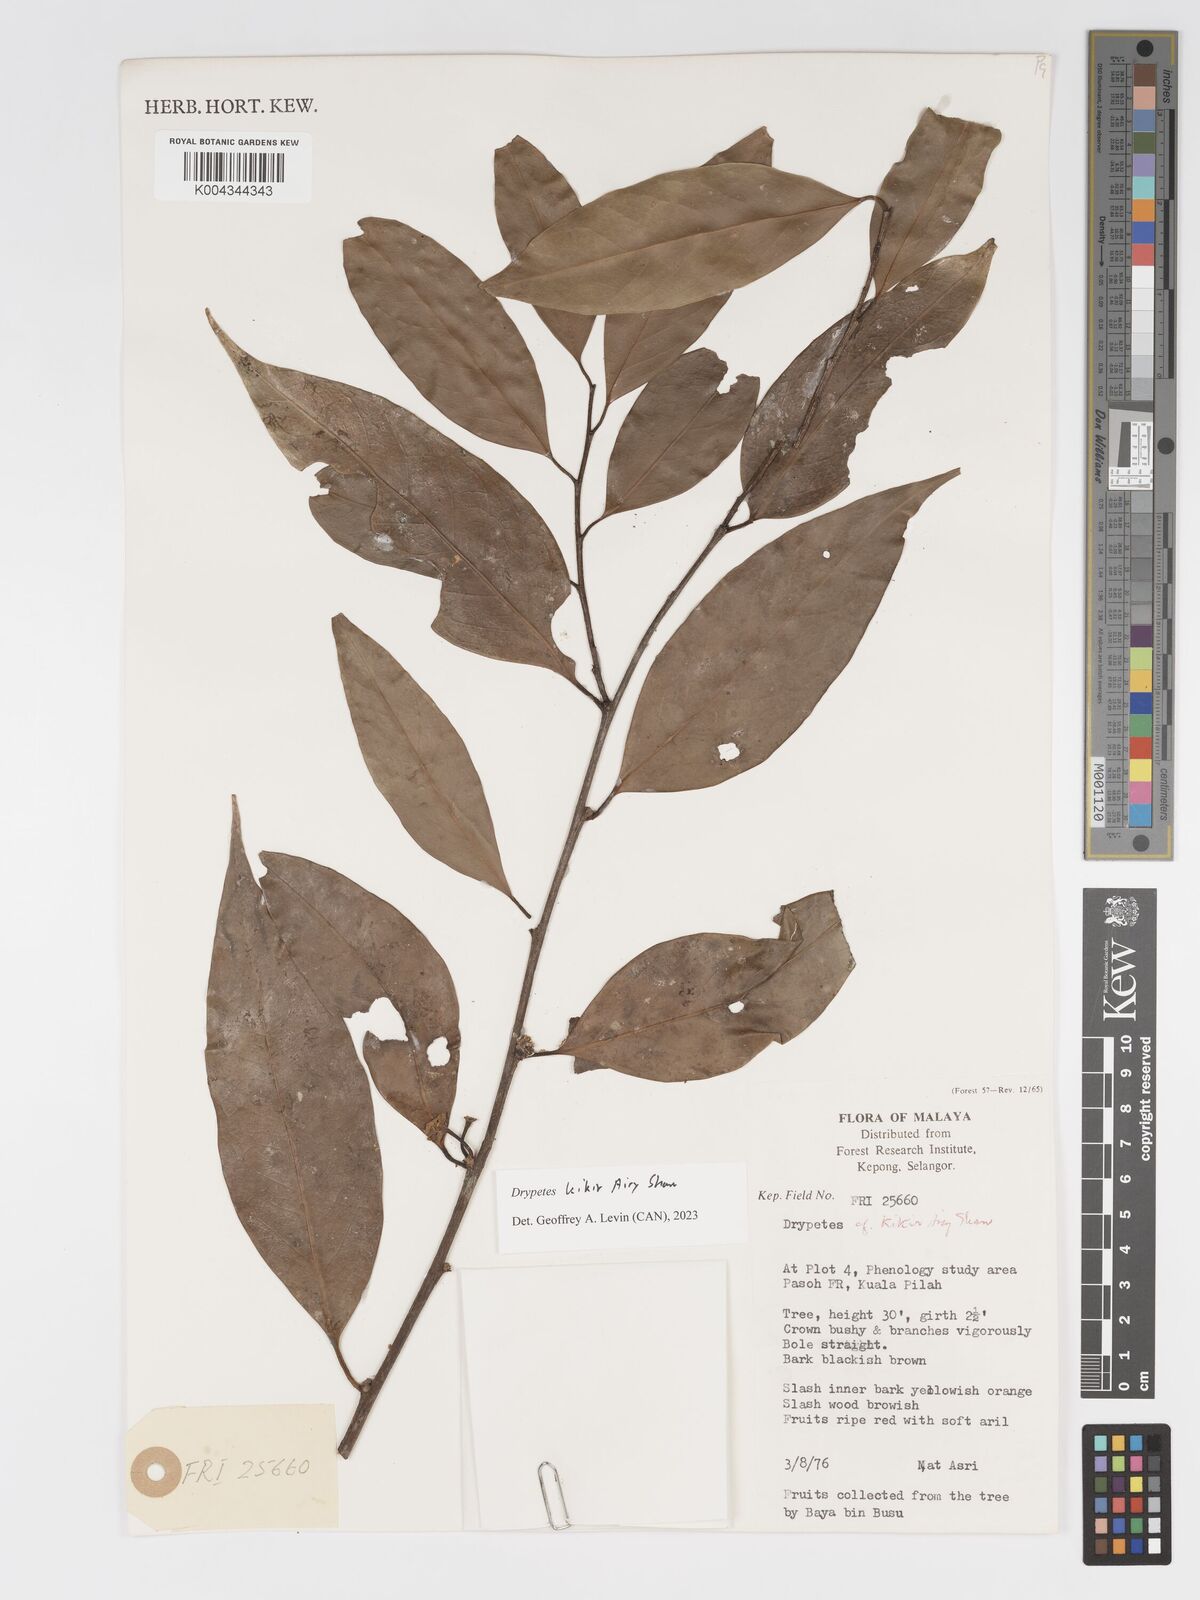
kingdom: Plantae
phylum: Tracheophyta
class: Magnoliopsida
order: Malpighiales
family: Putranjivaceae
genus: Drypetes
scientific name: Drypetes kikir
